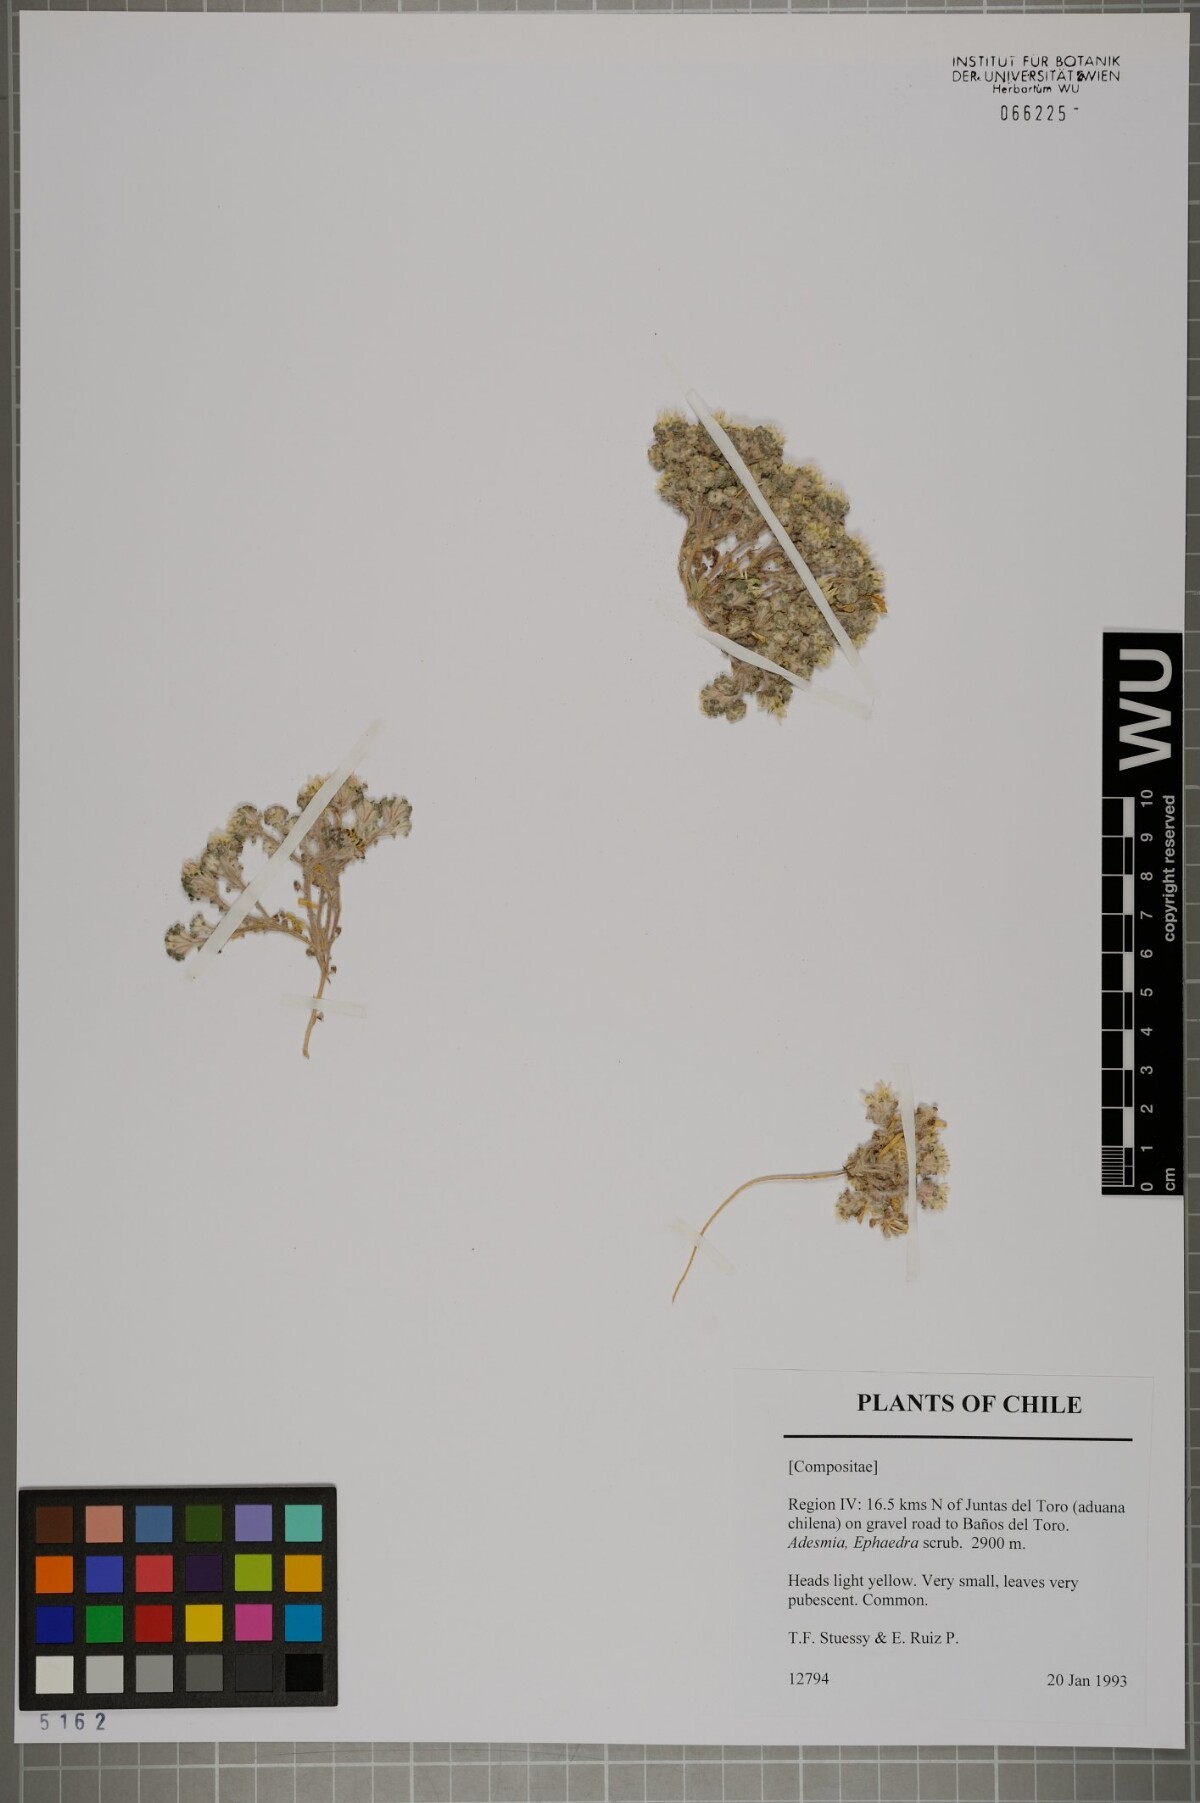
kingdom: Plantae
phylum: Tracheophyta
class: Magnoliopsida
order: Asterales
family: Asteraceae
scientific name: Asteraceae
